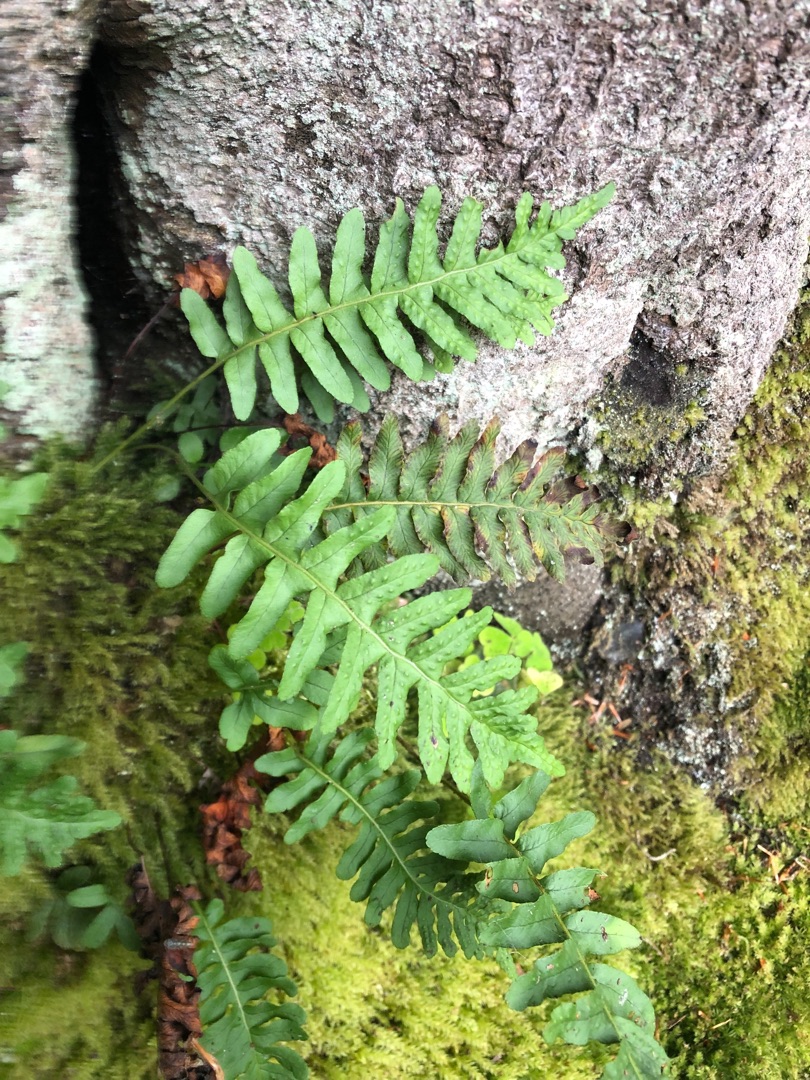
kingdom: Plantae
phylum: Tracheophyta
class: Polypodiopsida
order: Polypodiales
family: Polypodiaceae
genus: Polypodium
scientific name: Polypodium vulgare
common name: Almindelig engelsød
